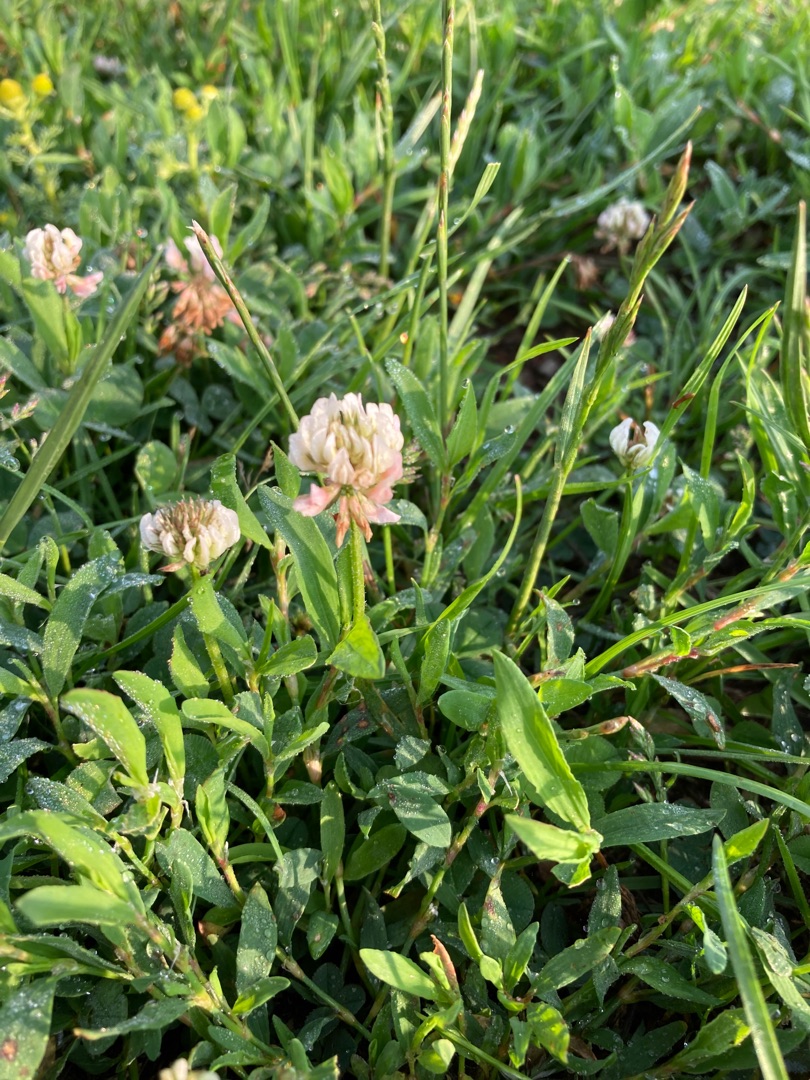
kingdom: Plantae
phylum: Tracheophyta
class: Magnoliopsida
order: Fabales
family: Fabaceae
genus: Trifolium
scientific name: Trifolium repens
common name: Hvid-kløver
